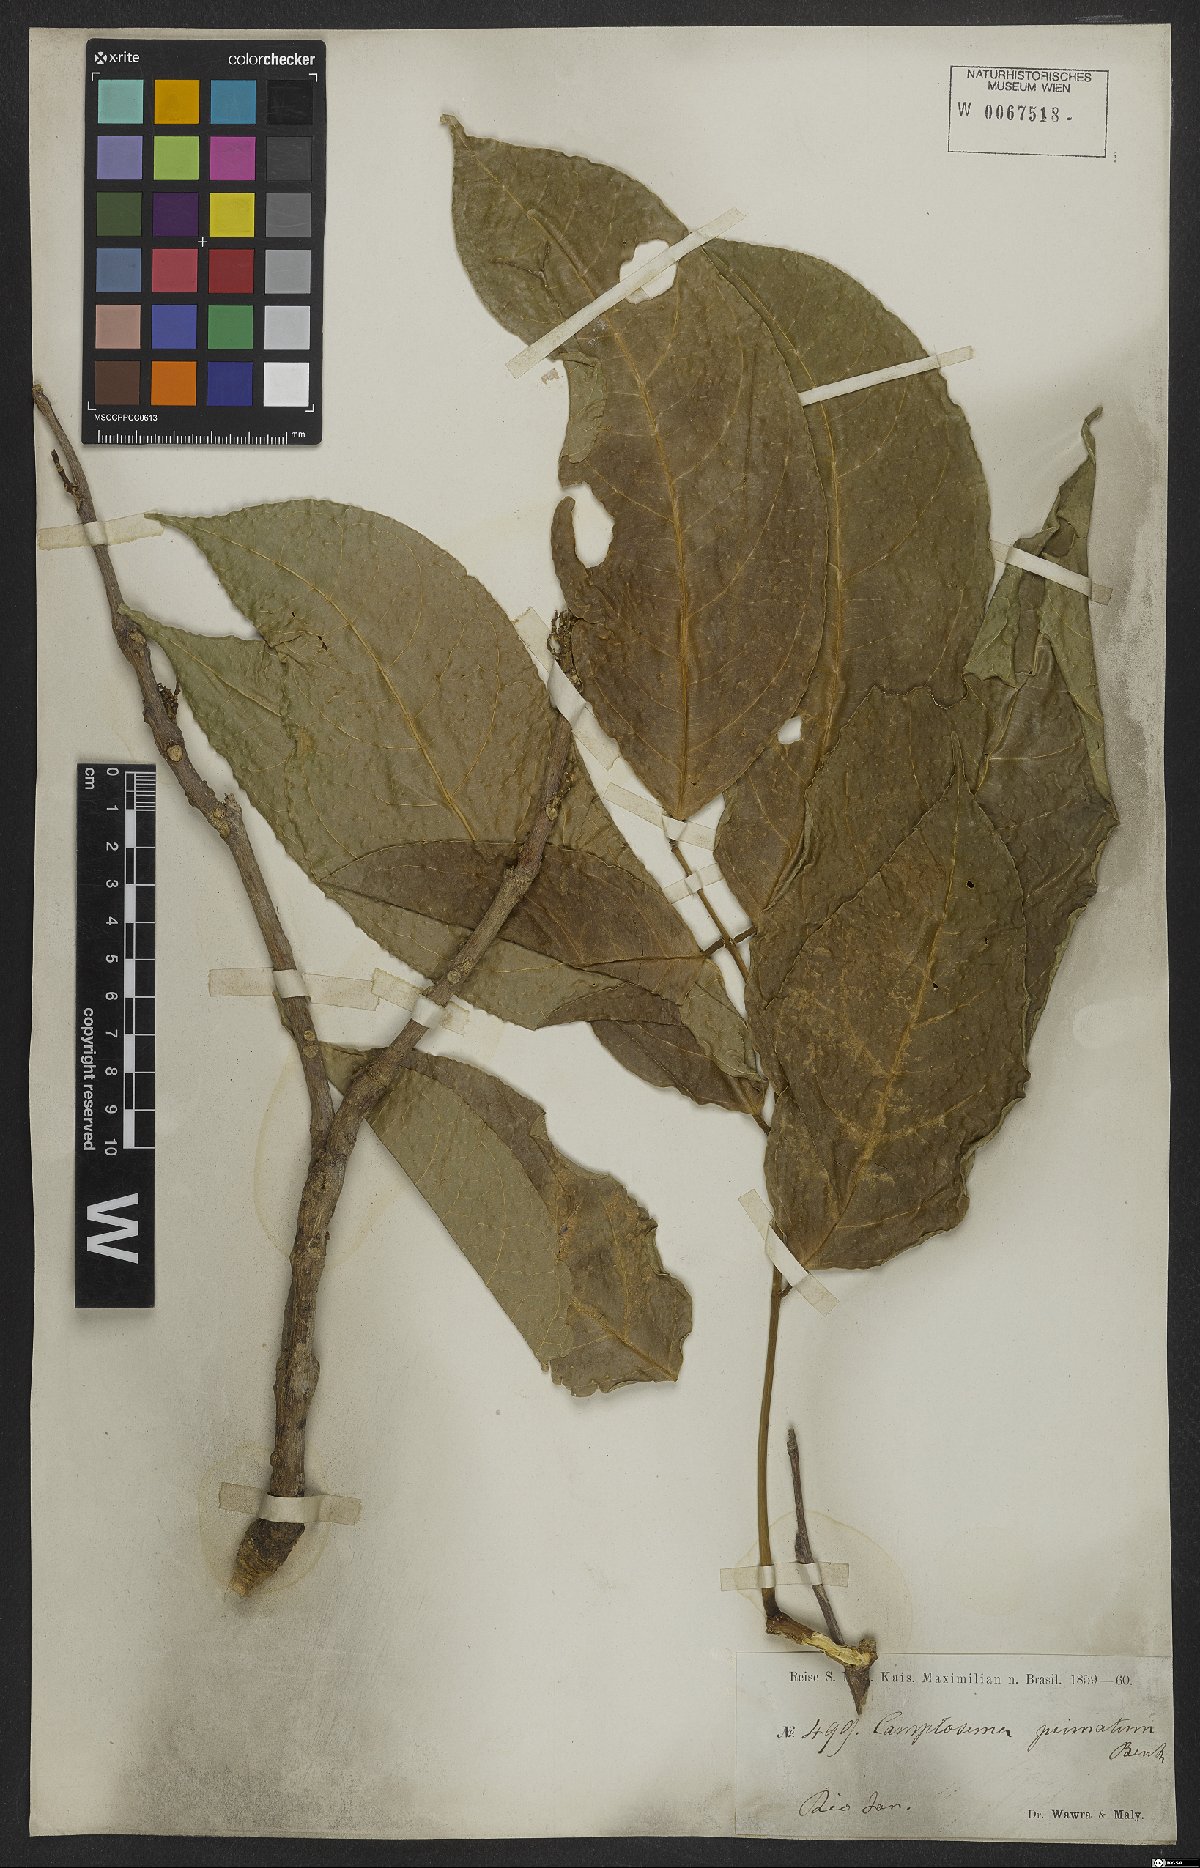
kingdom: Plantae
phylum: Tracheophyta
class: Magnoliopsida
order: Fabales
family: Fabaceae
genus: Dahlstedtia
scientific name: Dahlstedtia pinnata
